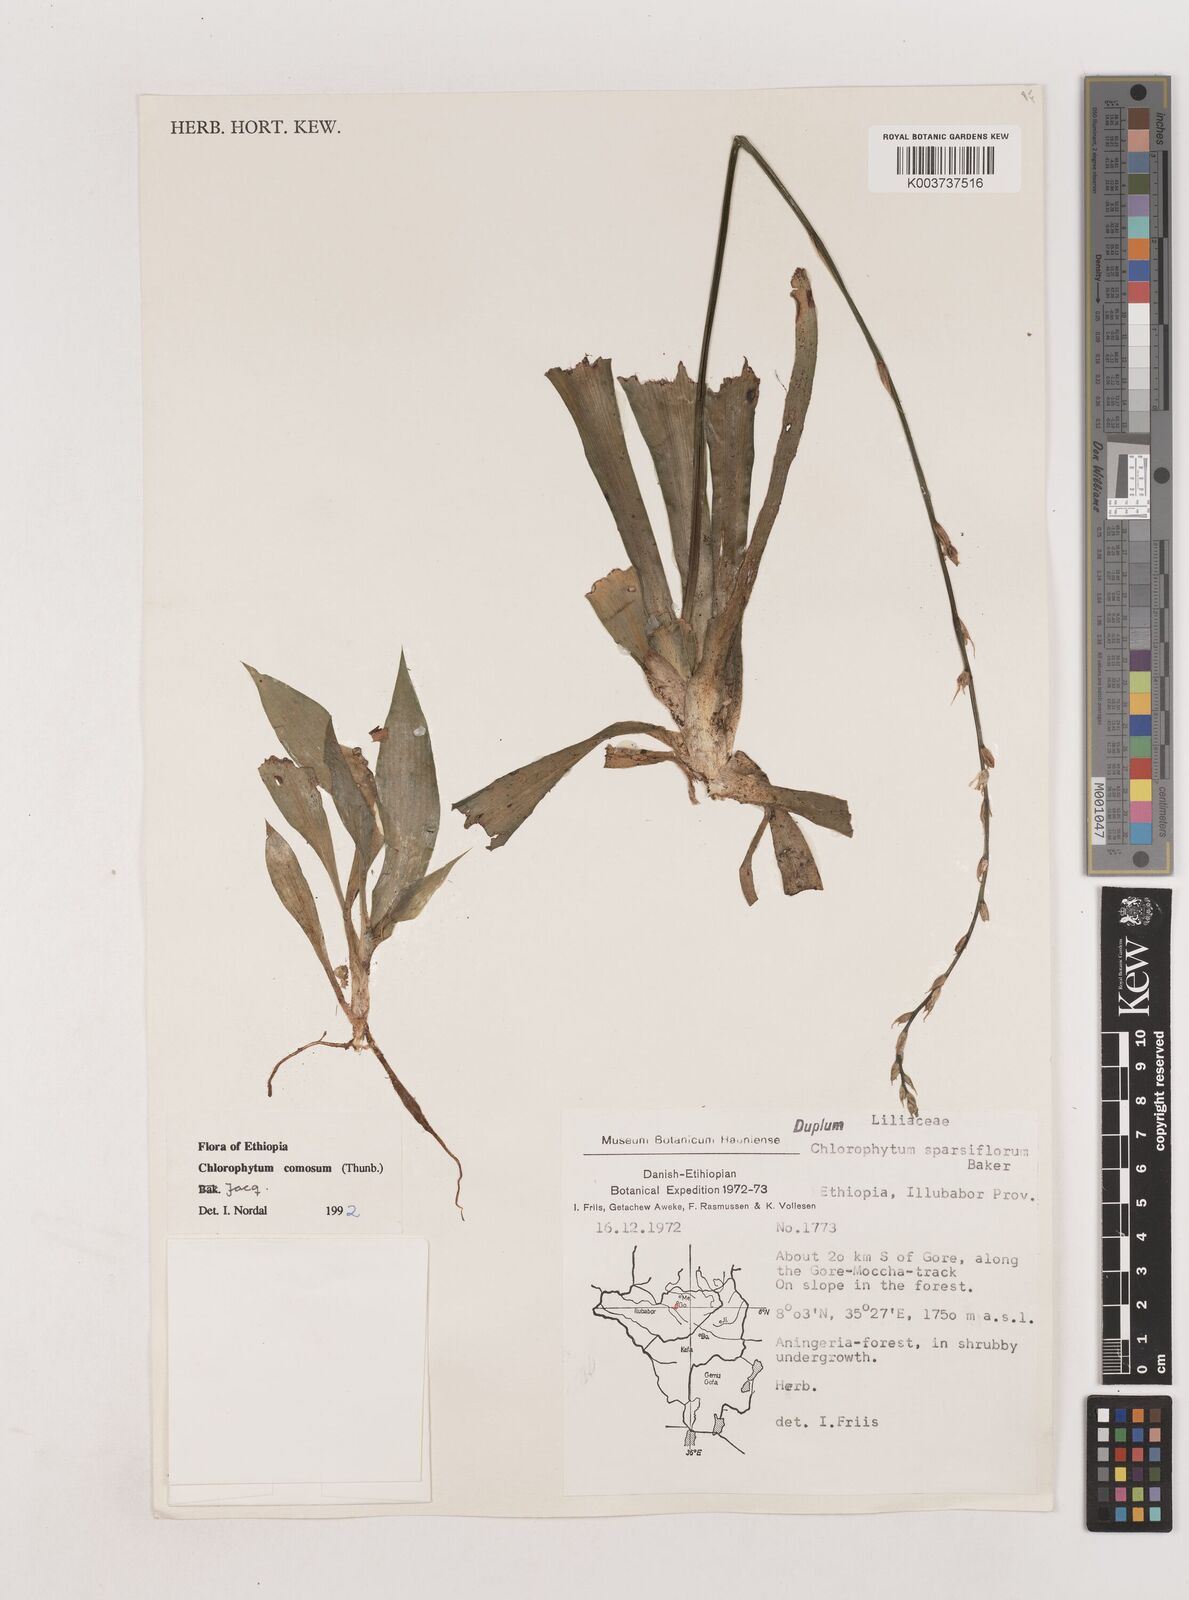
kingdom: Plantae
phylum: Tracheophyta
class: Liliopsida
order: Asparagales
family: Asparagaceae
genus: Chlorophytum
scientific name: Chlorophytum comosum
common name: Spider plant
